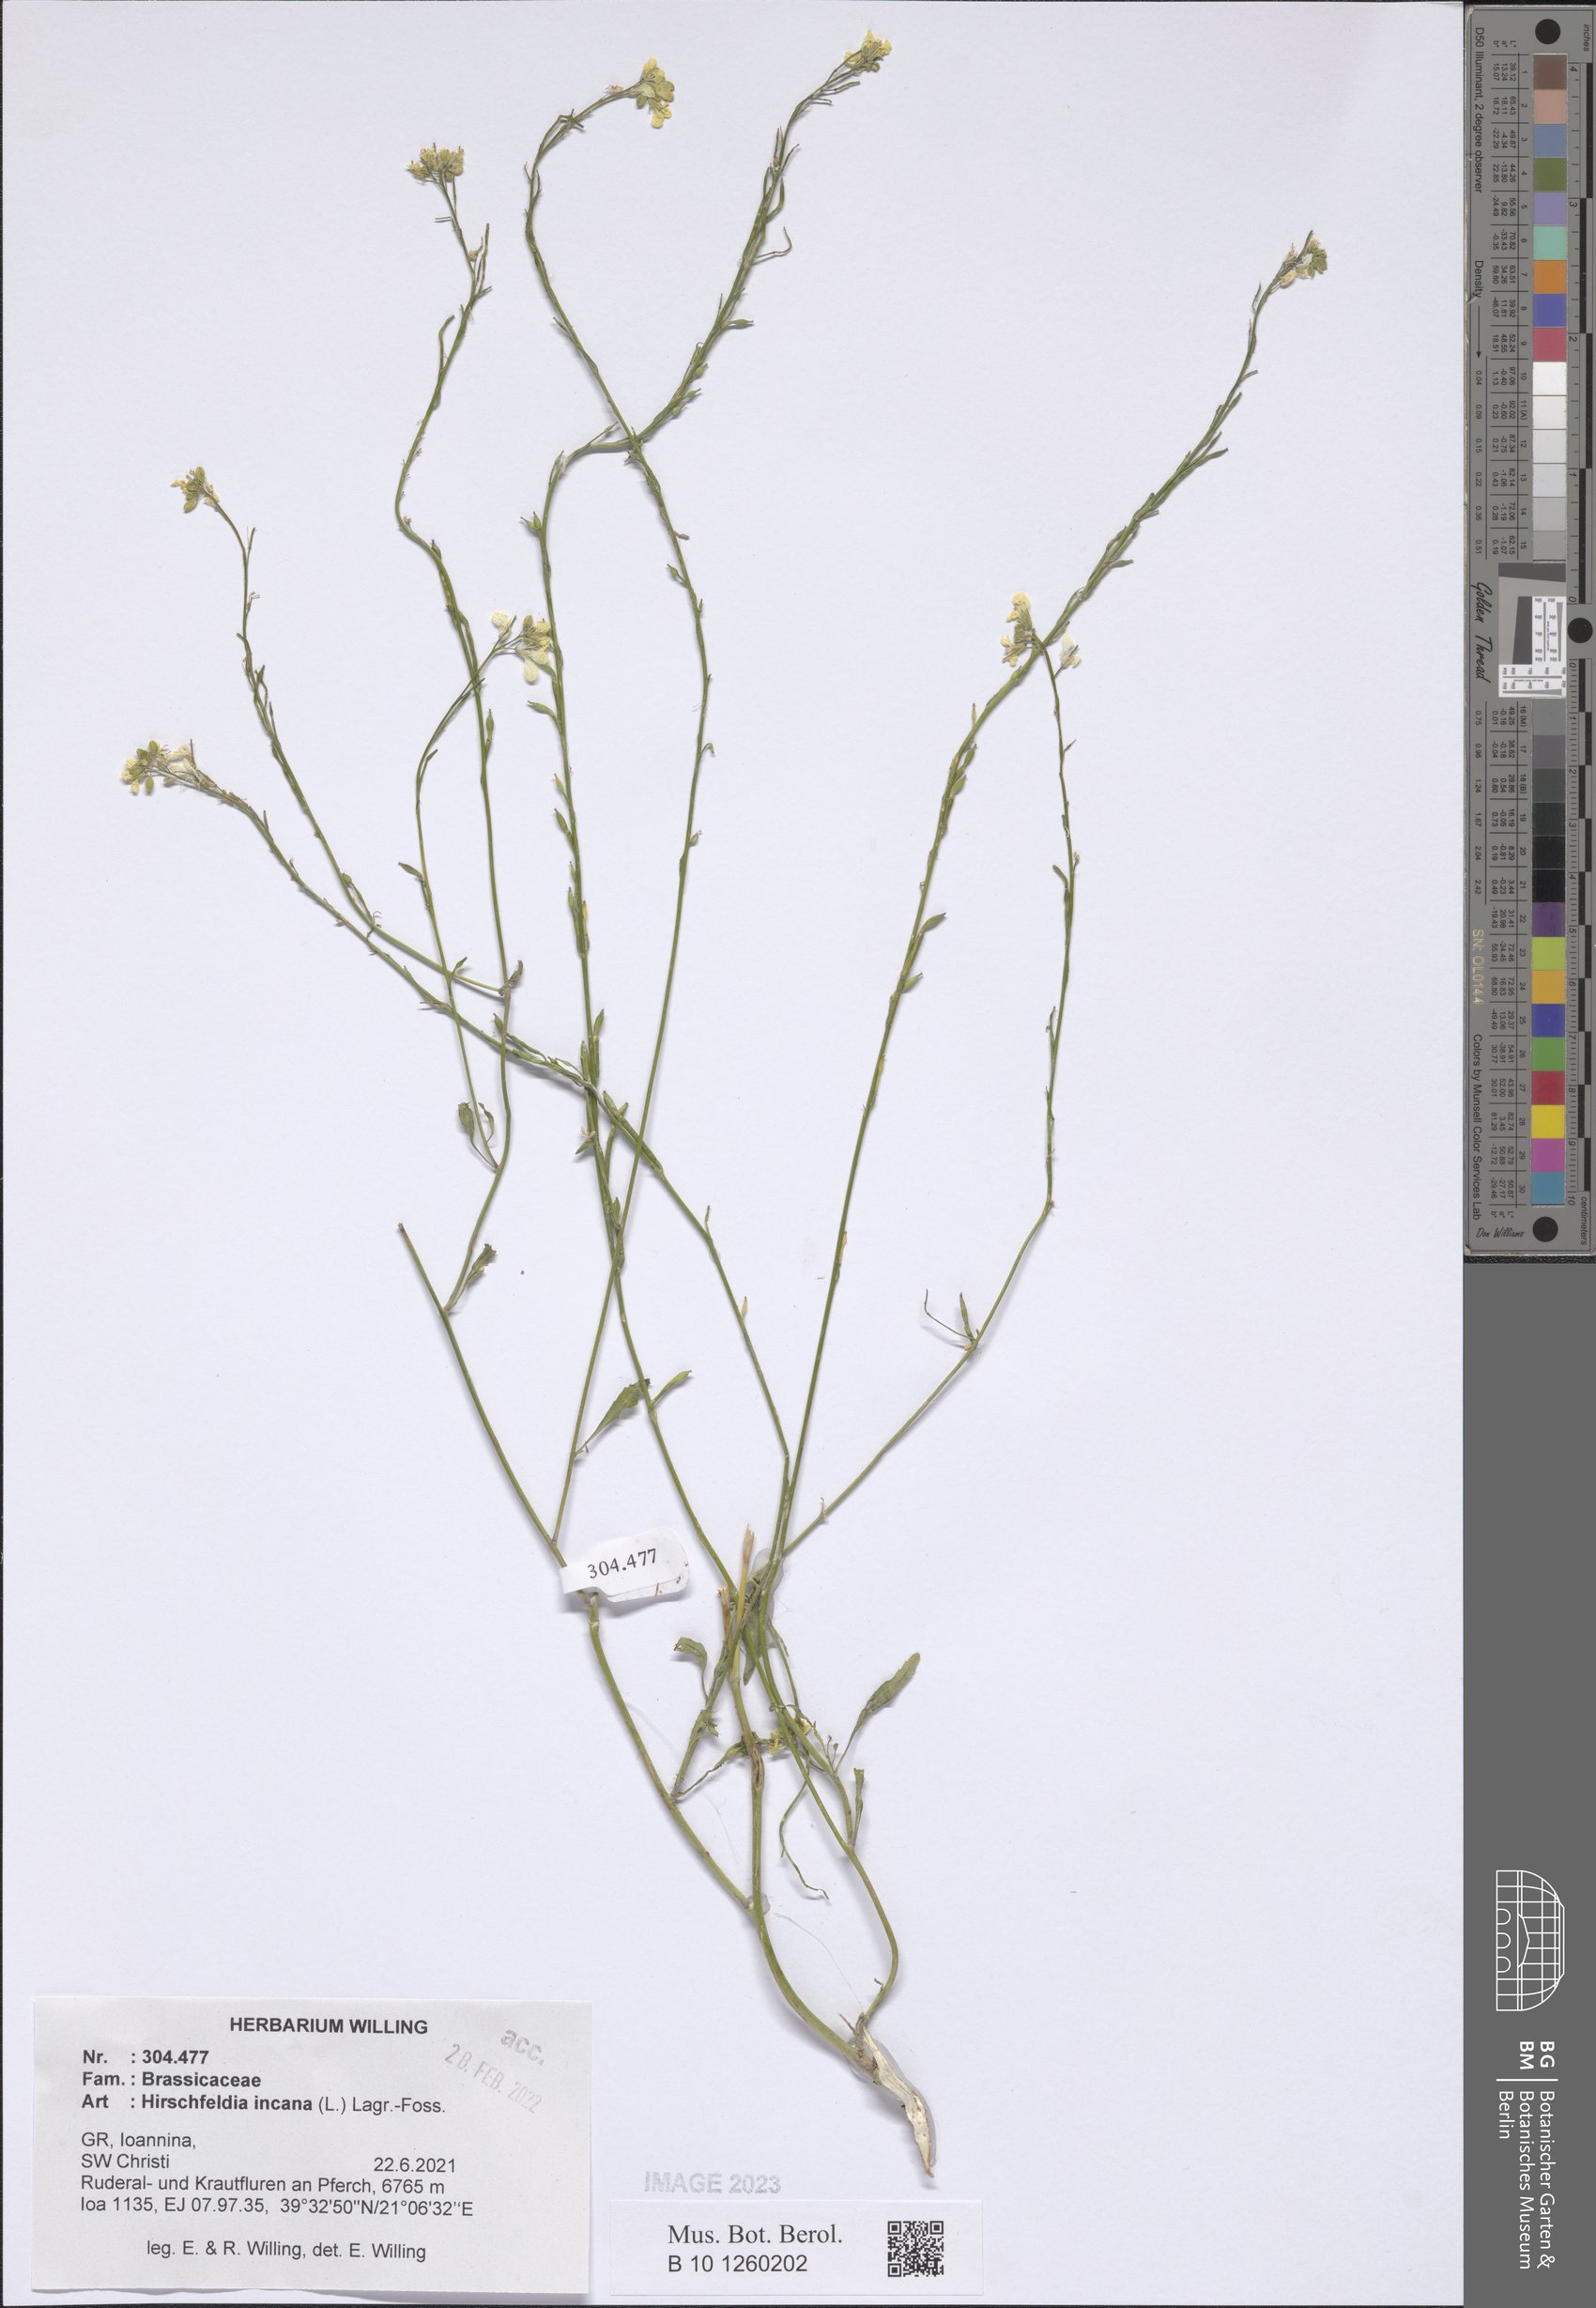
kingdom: Plantae
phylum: Tracheophyta
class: Magnoliopsida
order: Brassicales
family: Brassicaceae
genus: Hirschfeldia
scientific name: Hirschfeldia incana
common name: Hoary mustard
